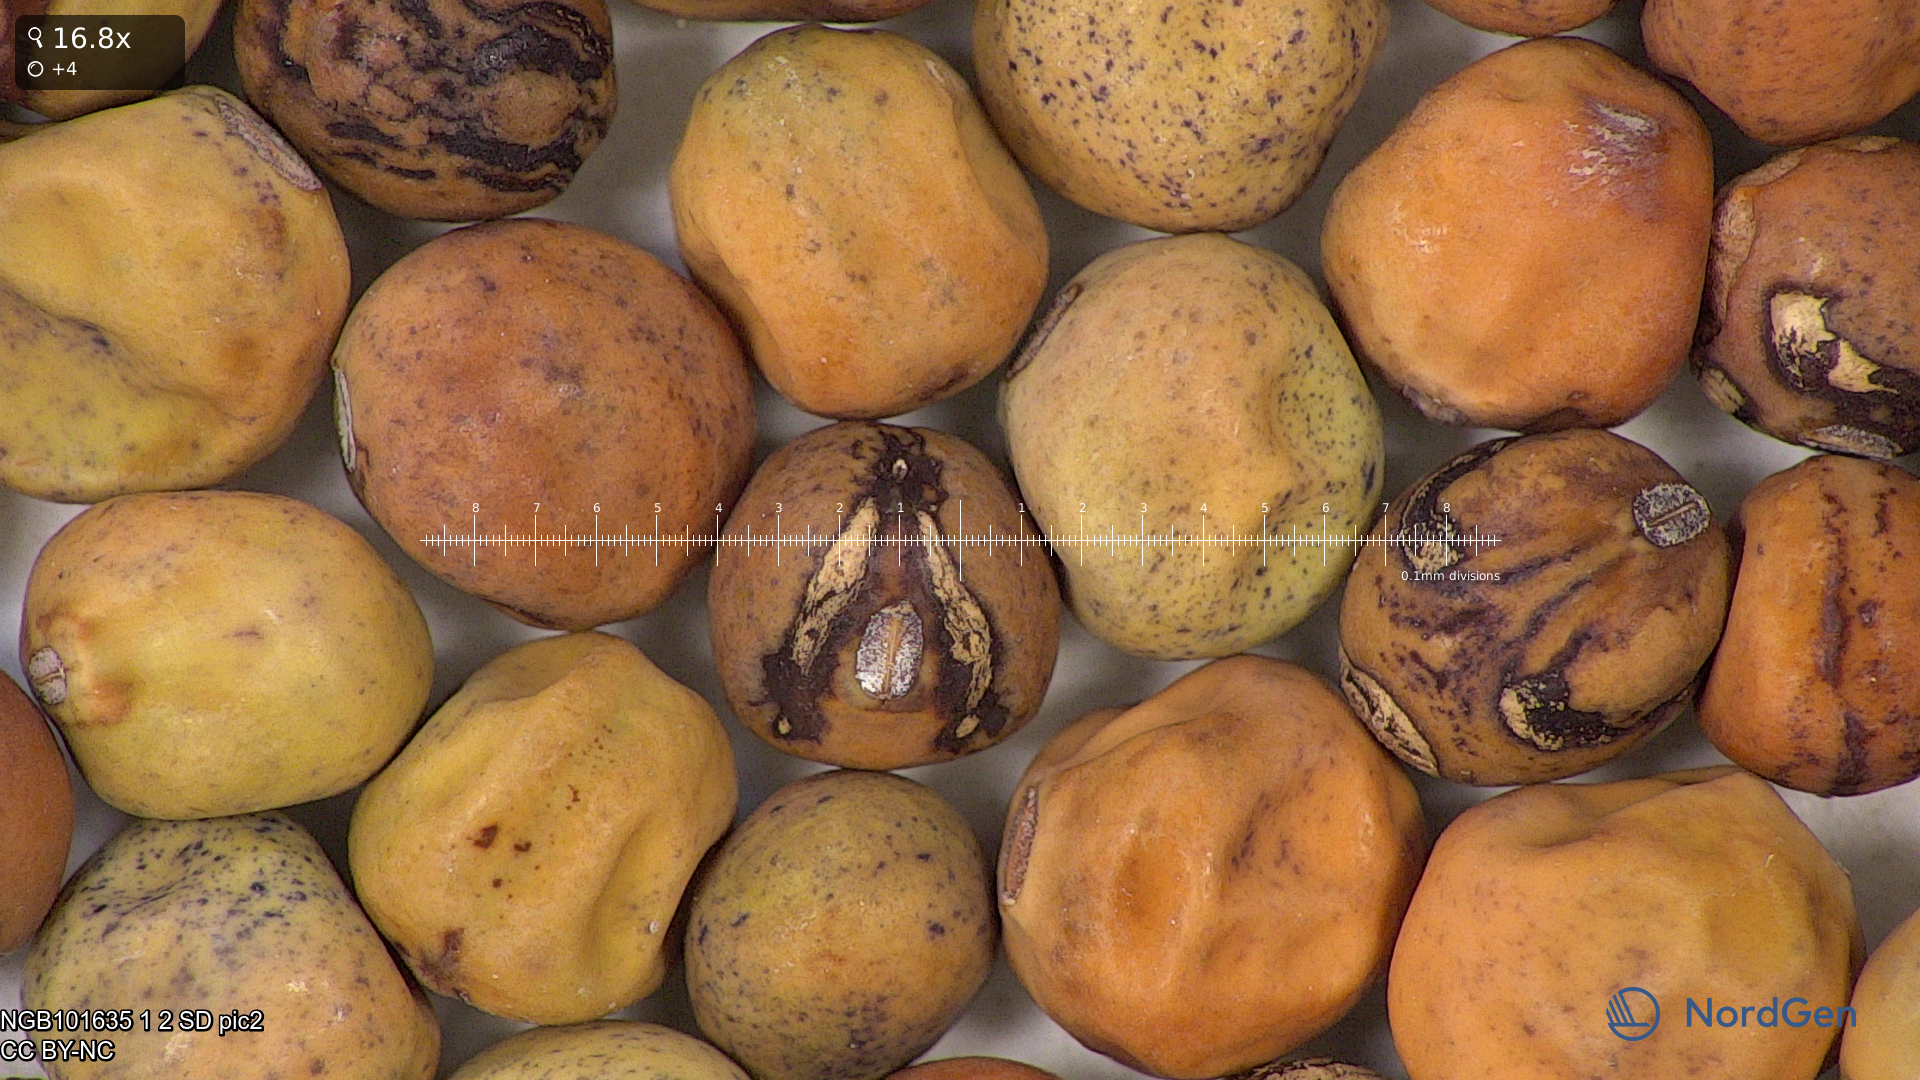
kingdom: Plantae
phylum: Tracheophyta
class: Magnoliopsida
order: Fabales
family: Fabaceae
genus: Lathyrus
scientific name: Lathyrus oleraceus
